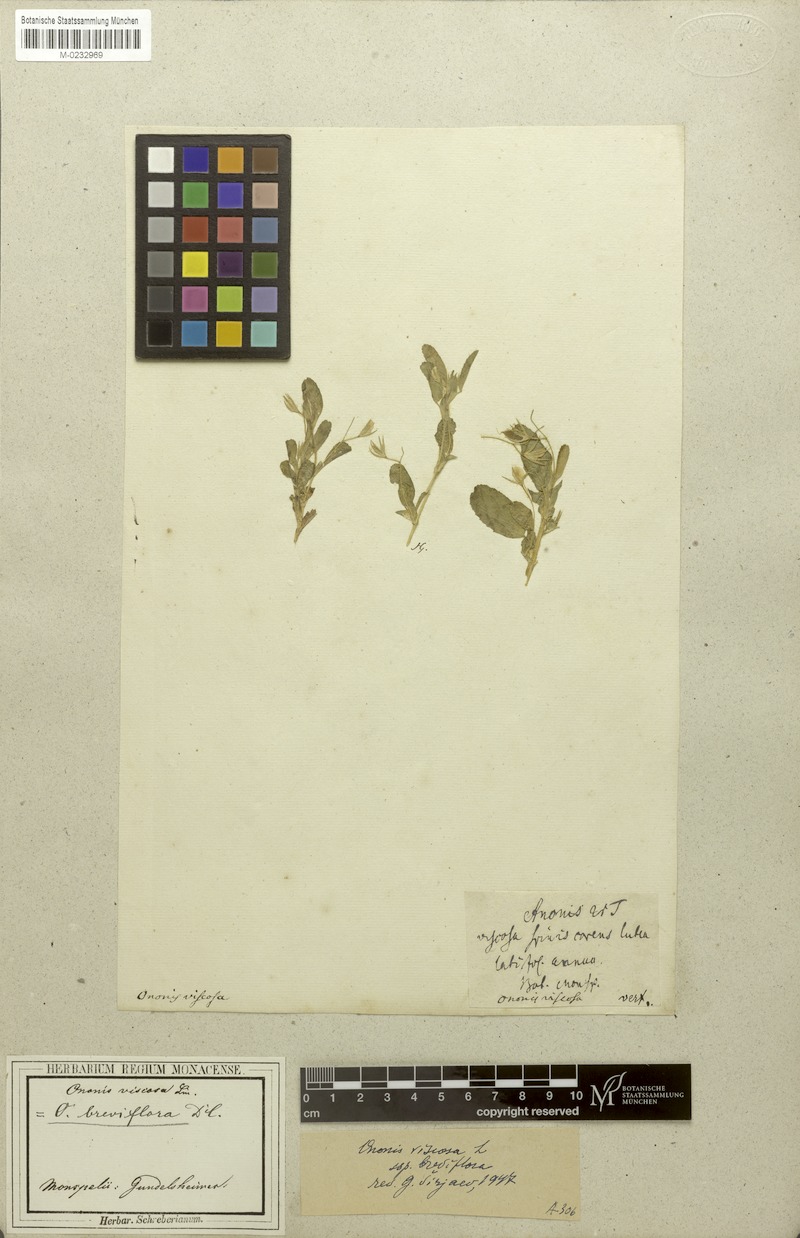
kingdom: Plantae
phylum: Tracheophyta
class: Magnoliopsida
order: Fabales
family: Fabaceae
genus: Ononis
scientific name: Ononis viscosa
